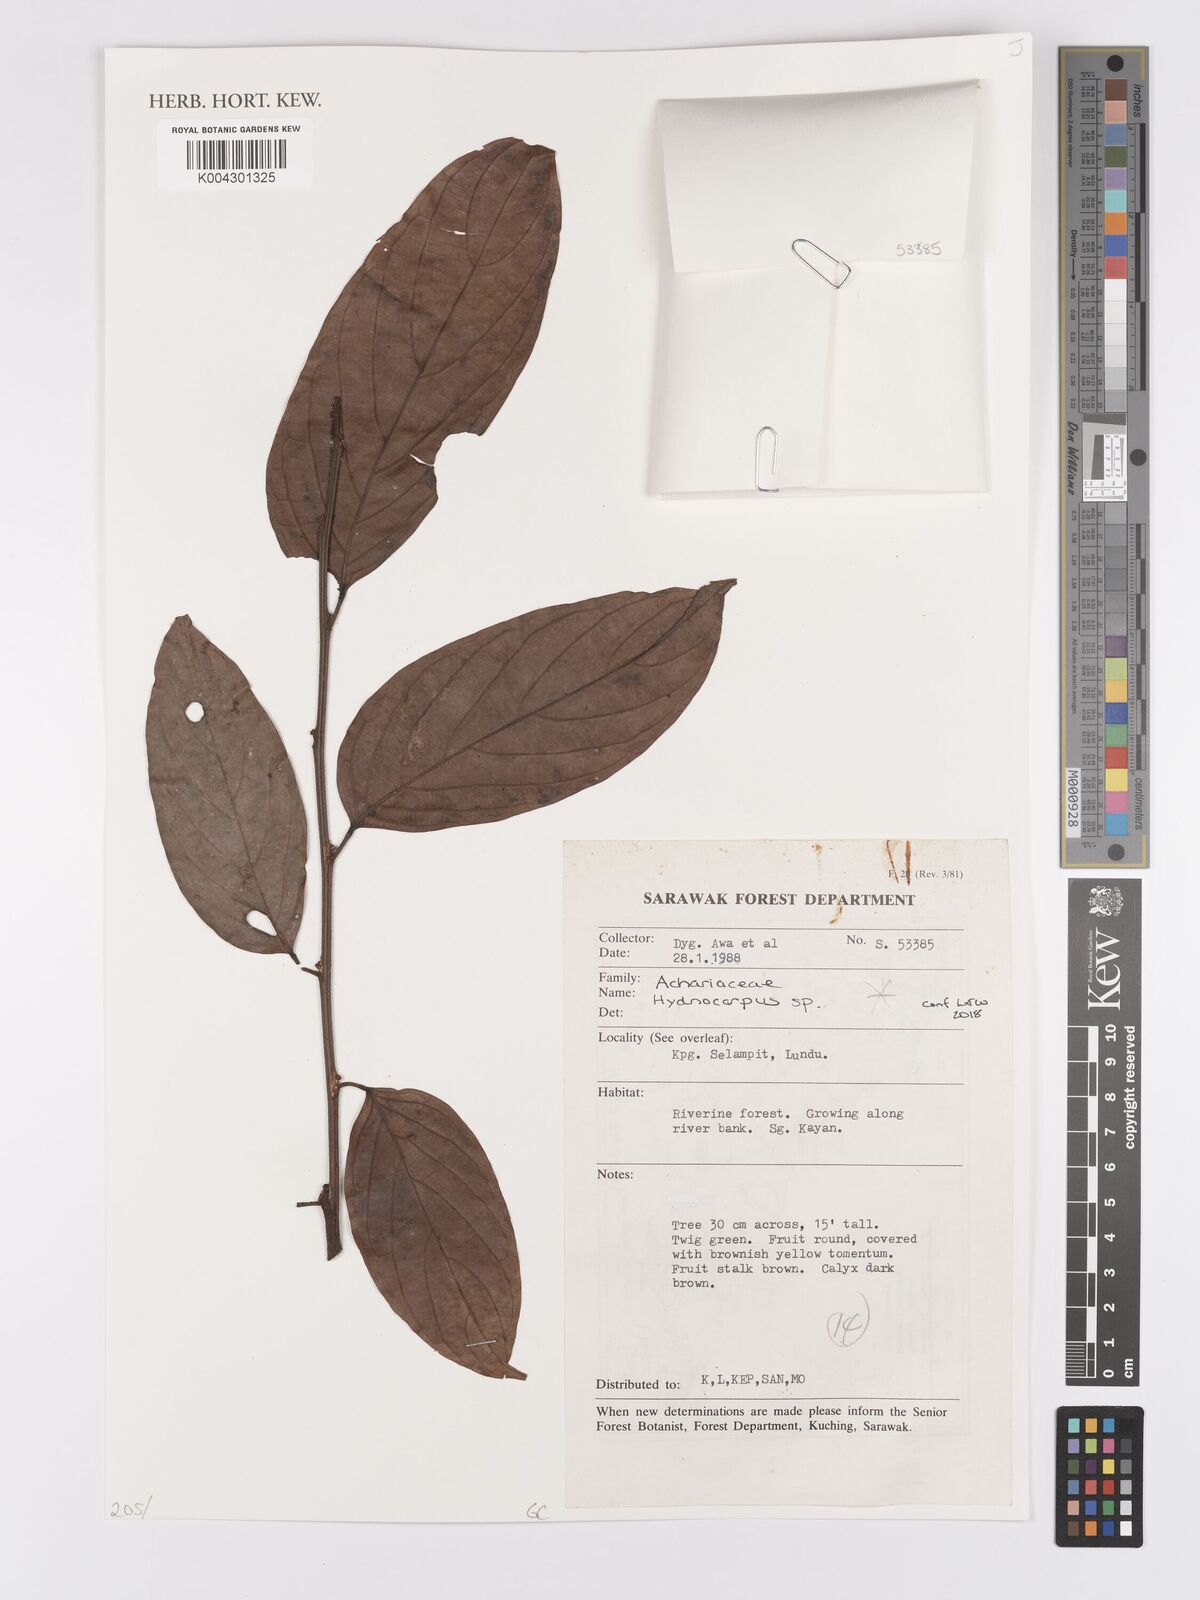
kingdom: Plantae
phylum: Tracheophyta
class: Magnoliopsida
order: Malpighiales
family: Achariaceae
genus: Hydnocarpus
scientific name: Hydnocarpus
